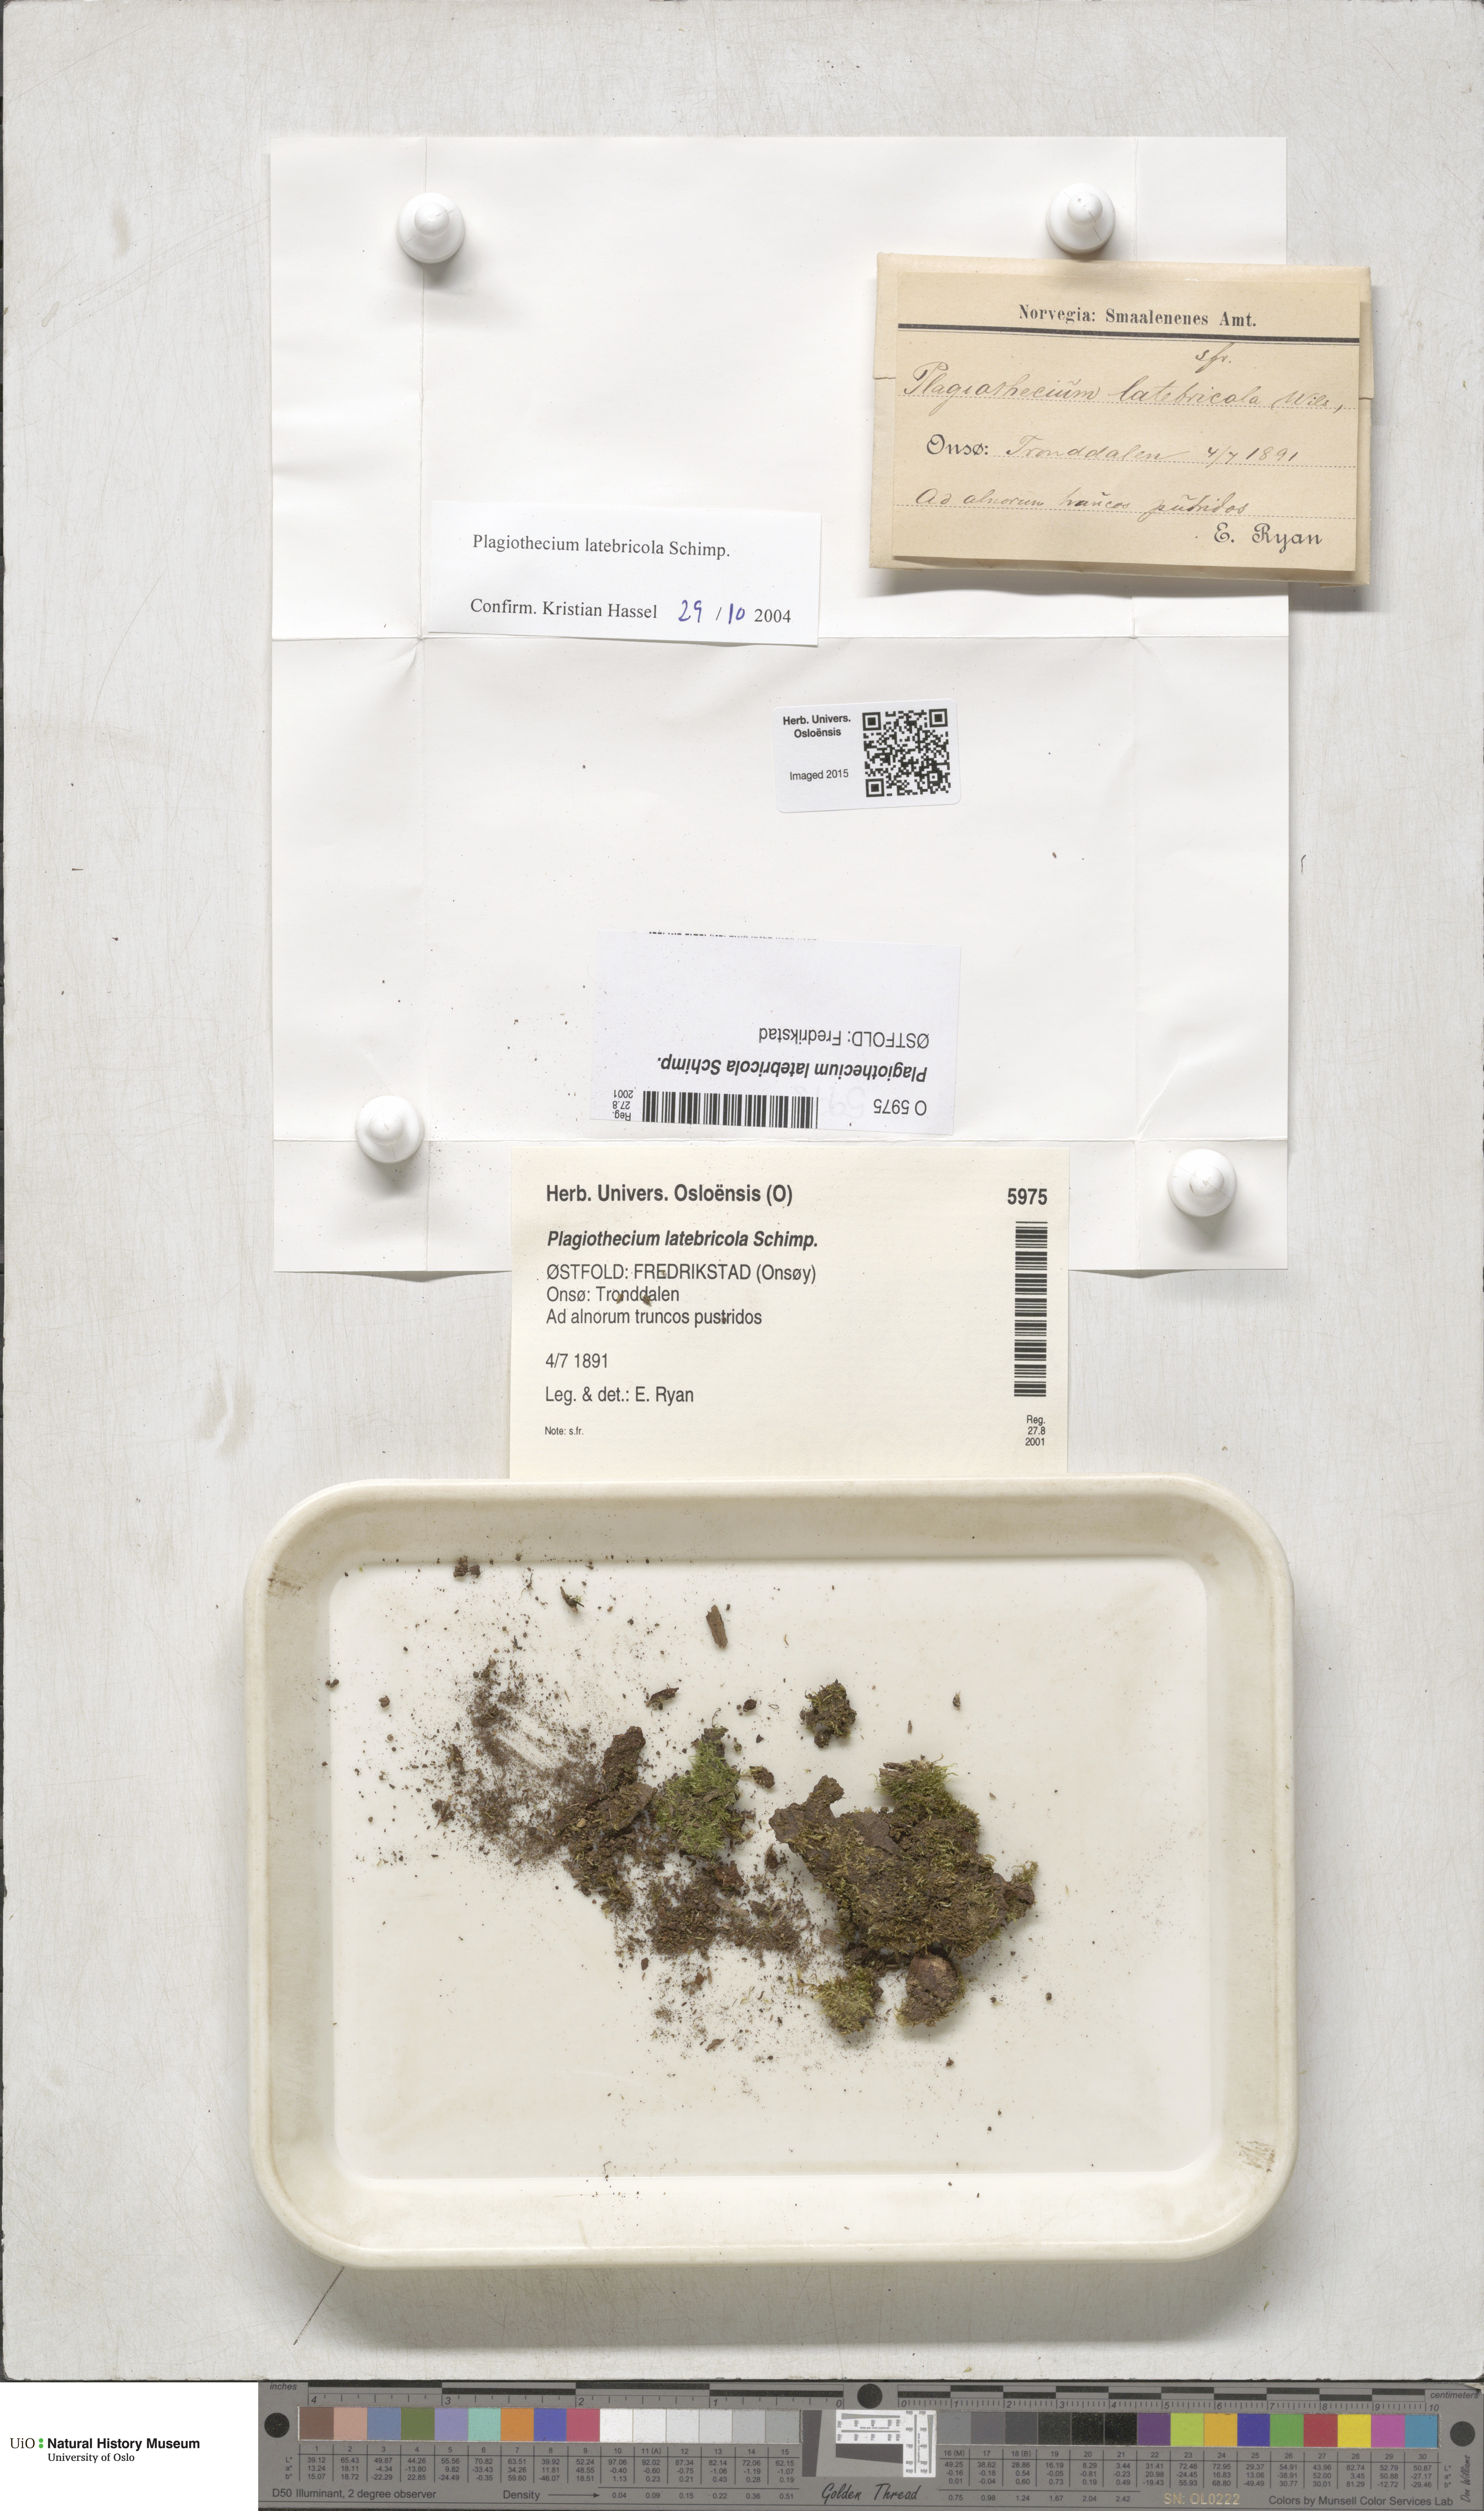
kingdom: Plantae
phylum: Bryophyta
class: Bryopsida
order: Hypnales
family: Plagiotheciaceae
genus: Plagiothecium
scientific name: Plagiothecium latebricola
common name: Alder silk moss
